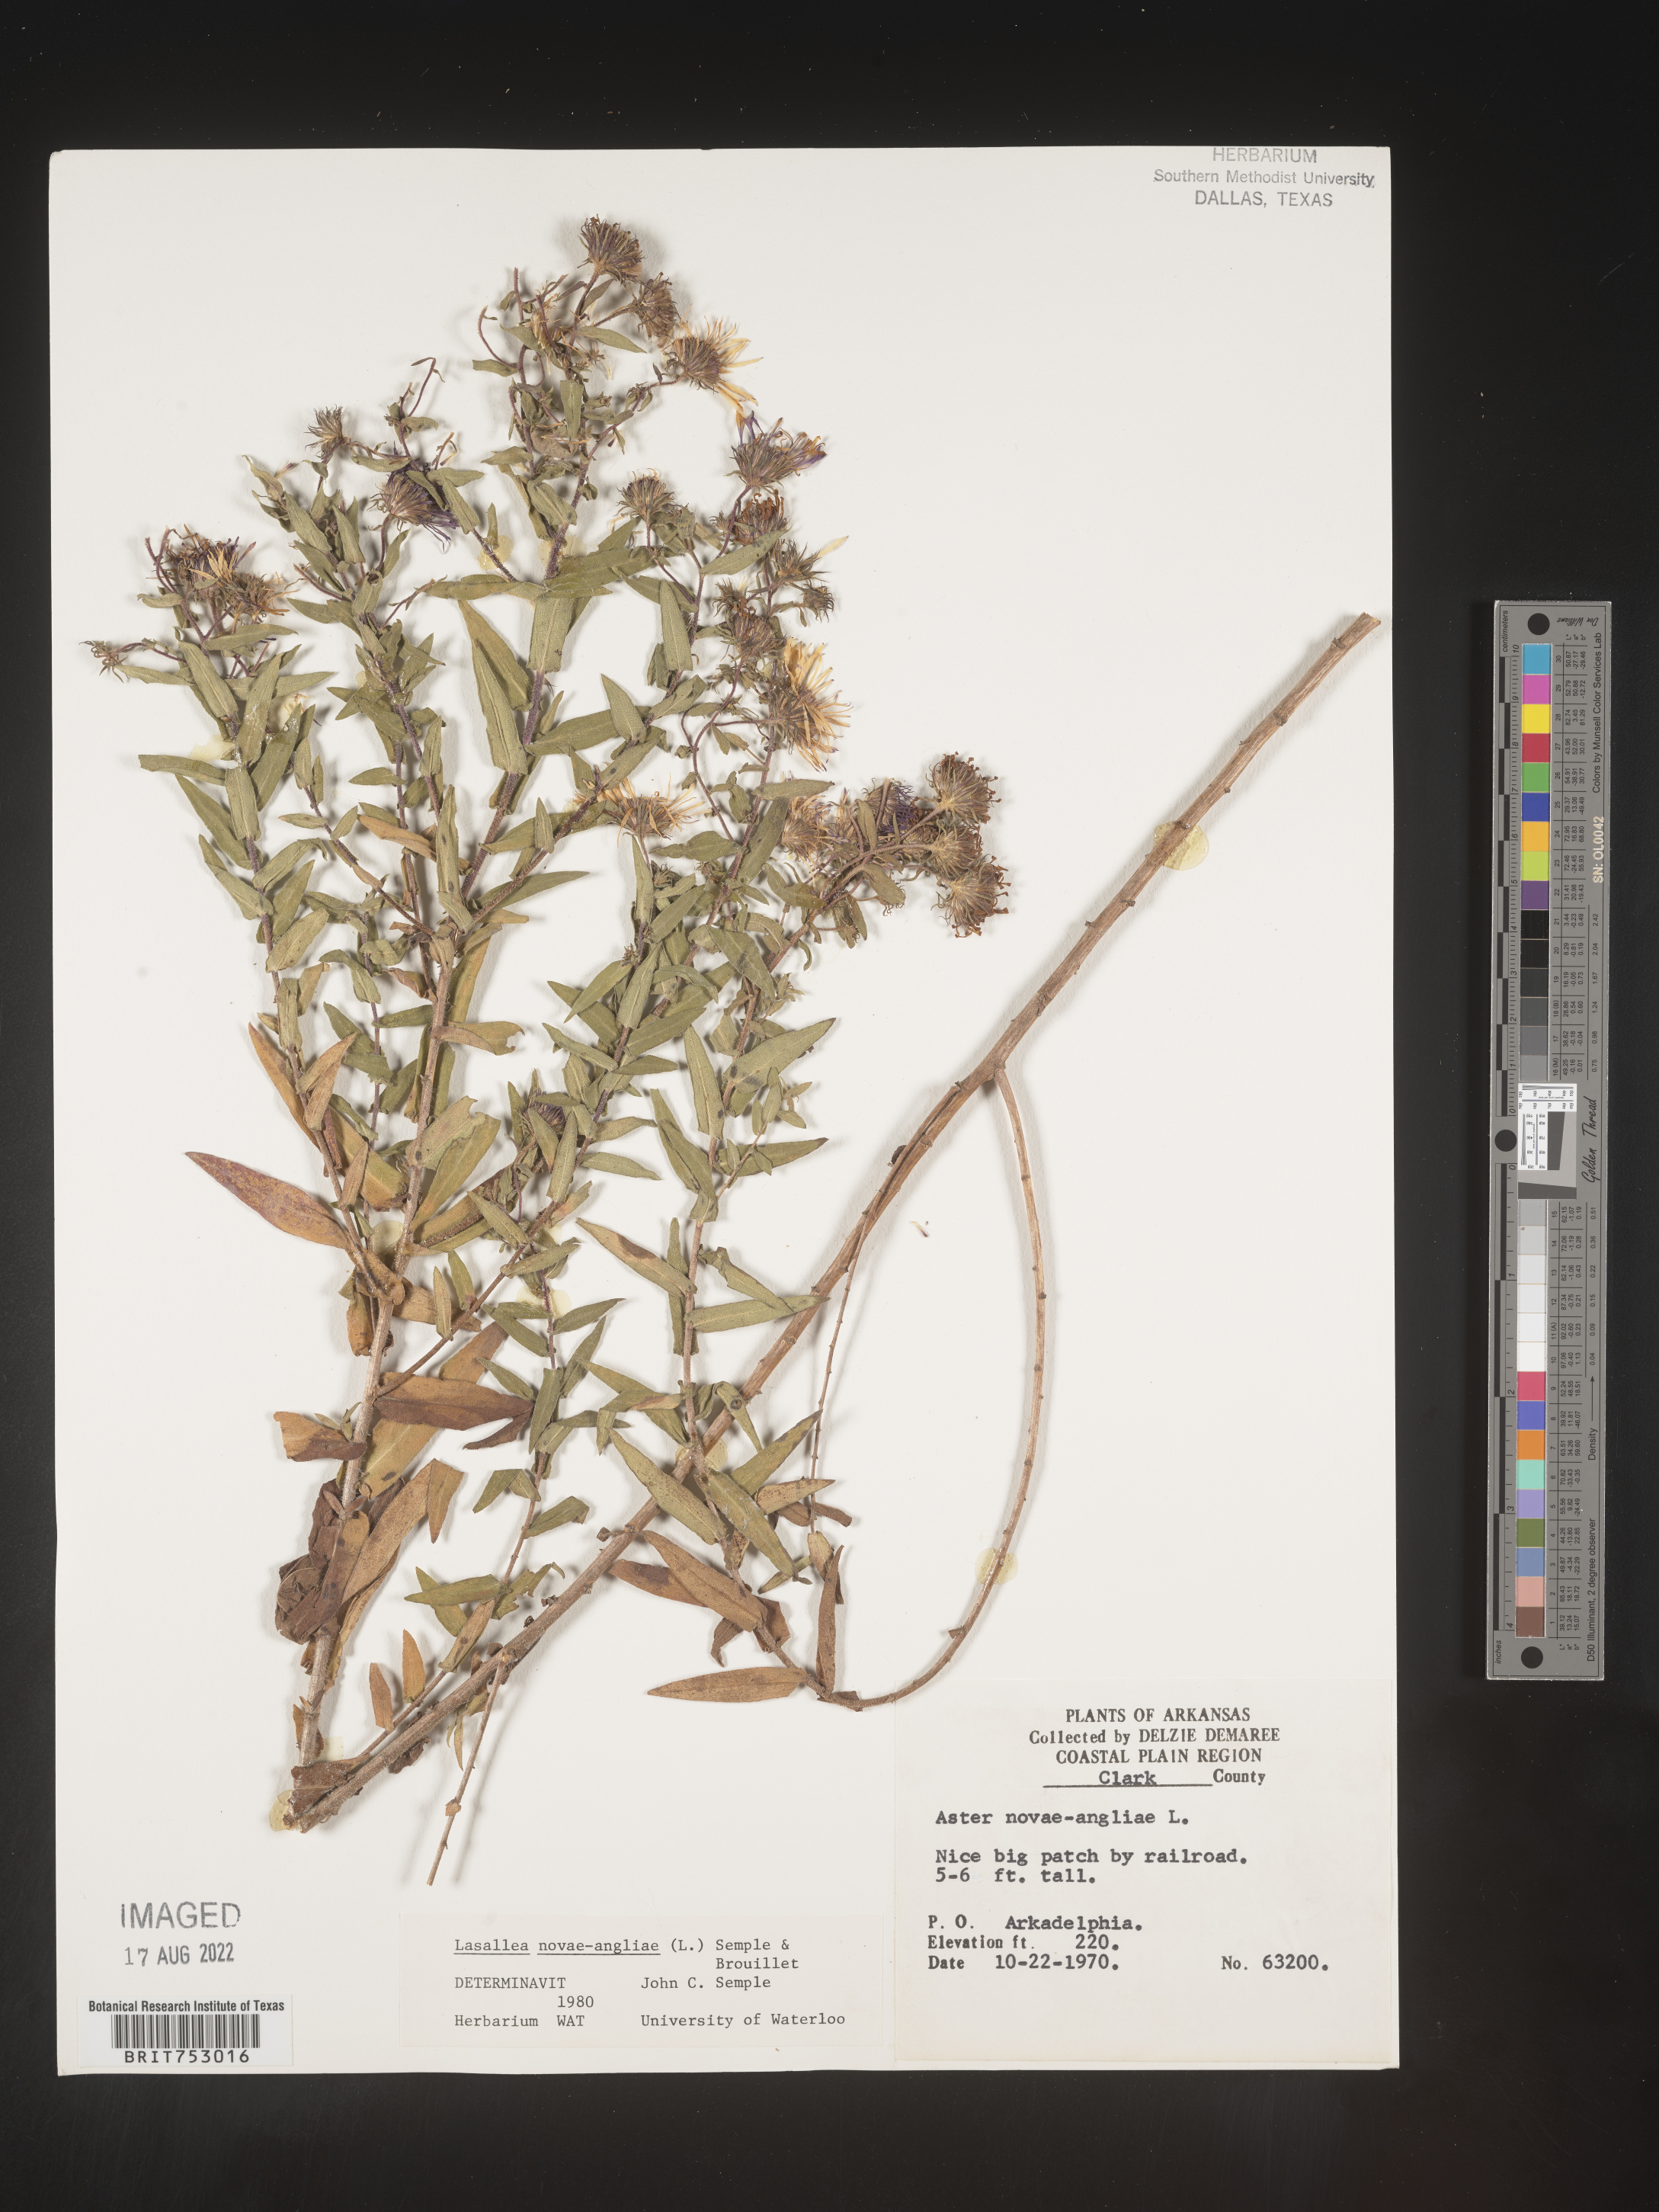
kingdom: Plantae
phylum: Tracheophyta
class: Magnoliopsida
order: Asterales
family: Asteraceae
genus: Symphyotrichum
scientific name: Symphyotrichum novae-angliae
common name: Michaelmas daisy
